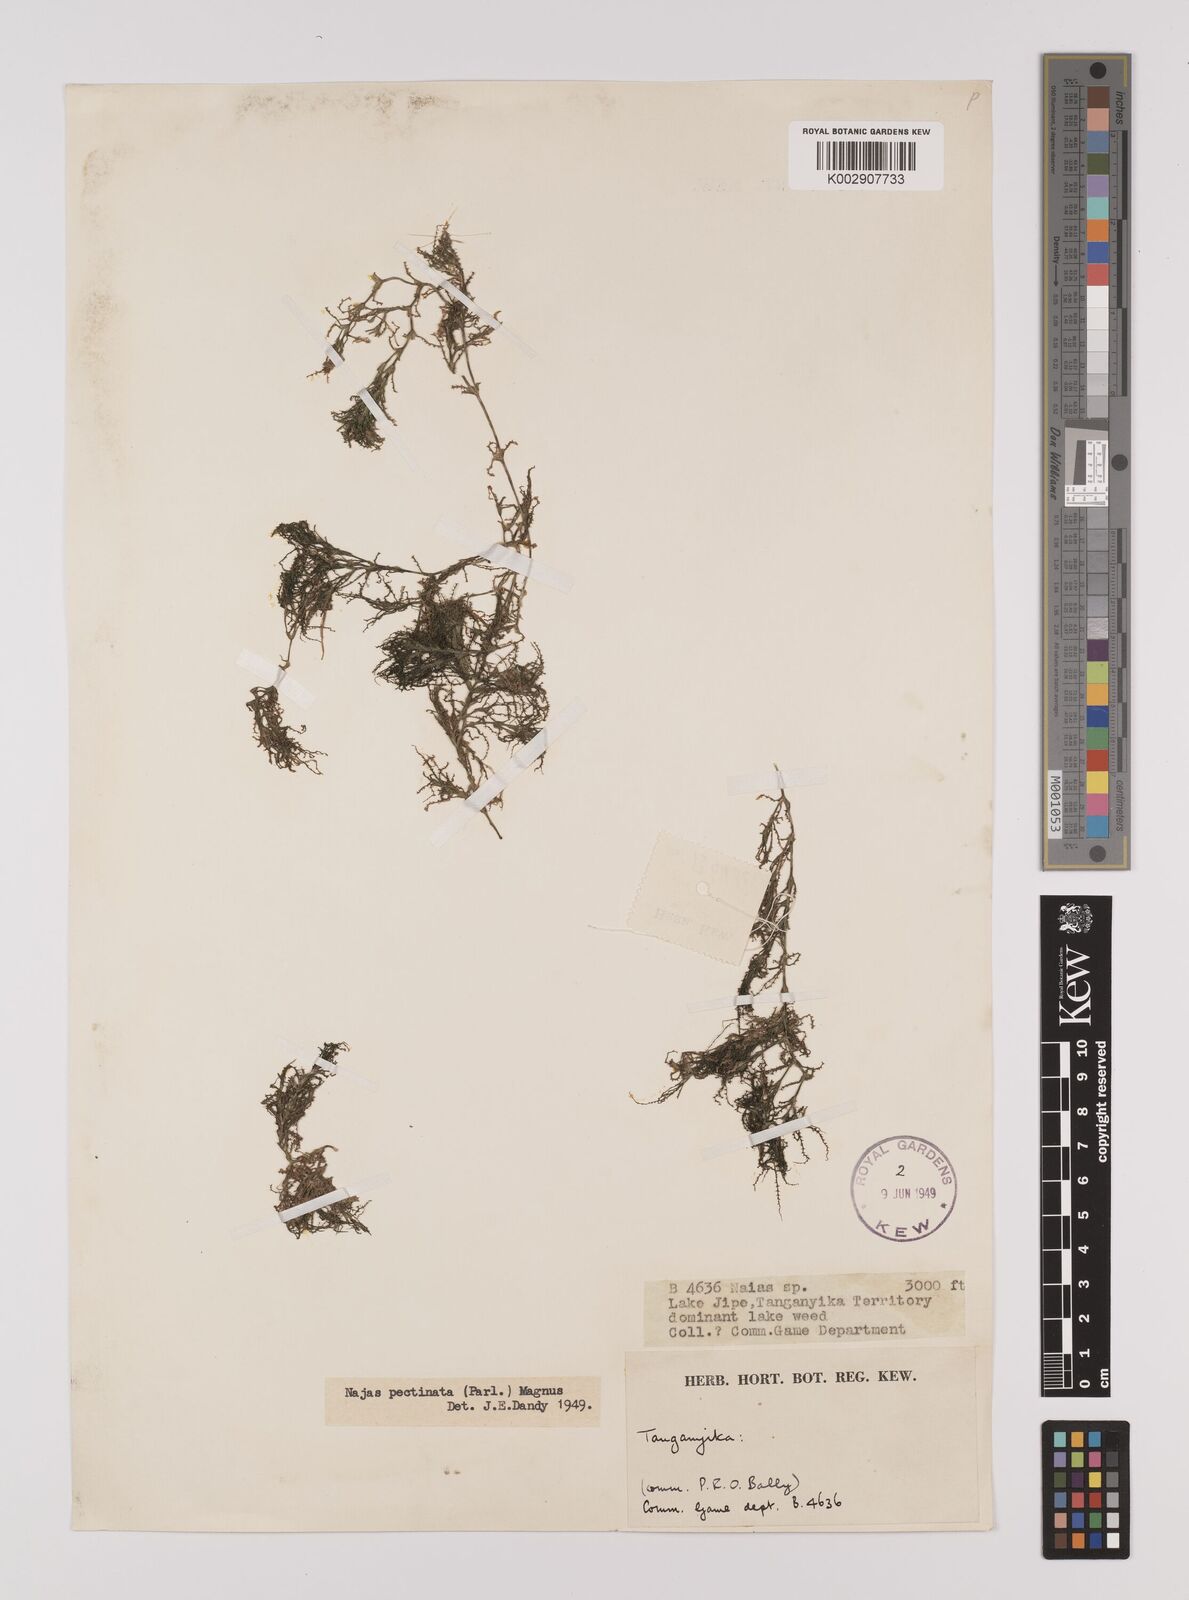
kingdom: Plantae
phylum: Tracheophyta
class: Liliopsida
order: Alismatales
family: Hydrocharitaceae
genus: Najas
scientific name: Najas horrida
